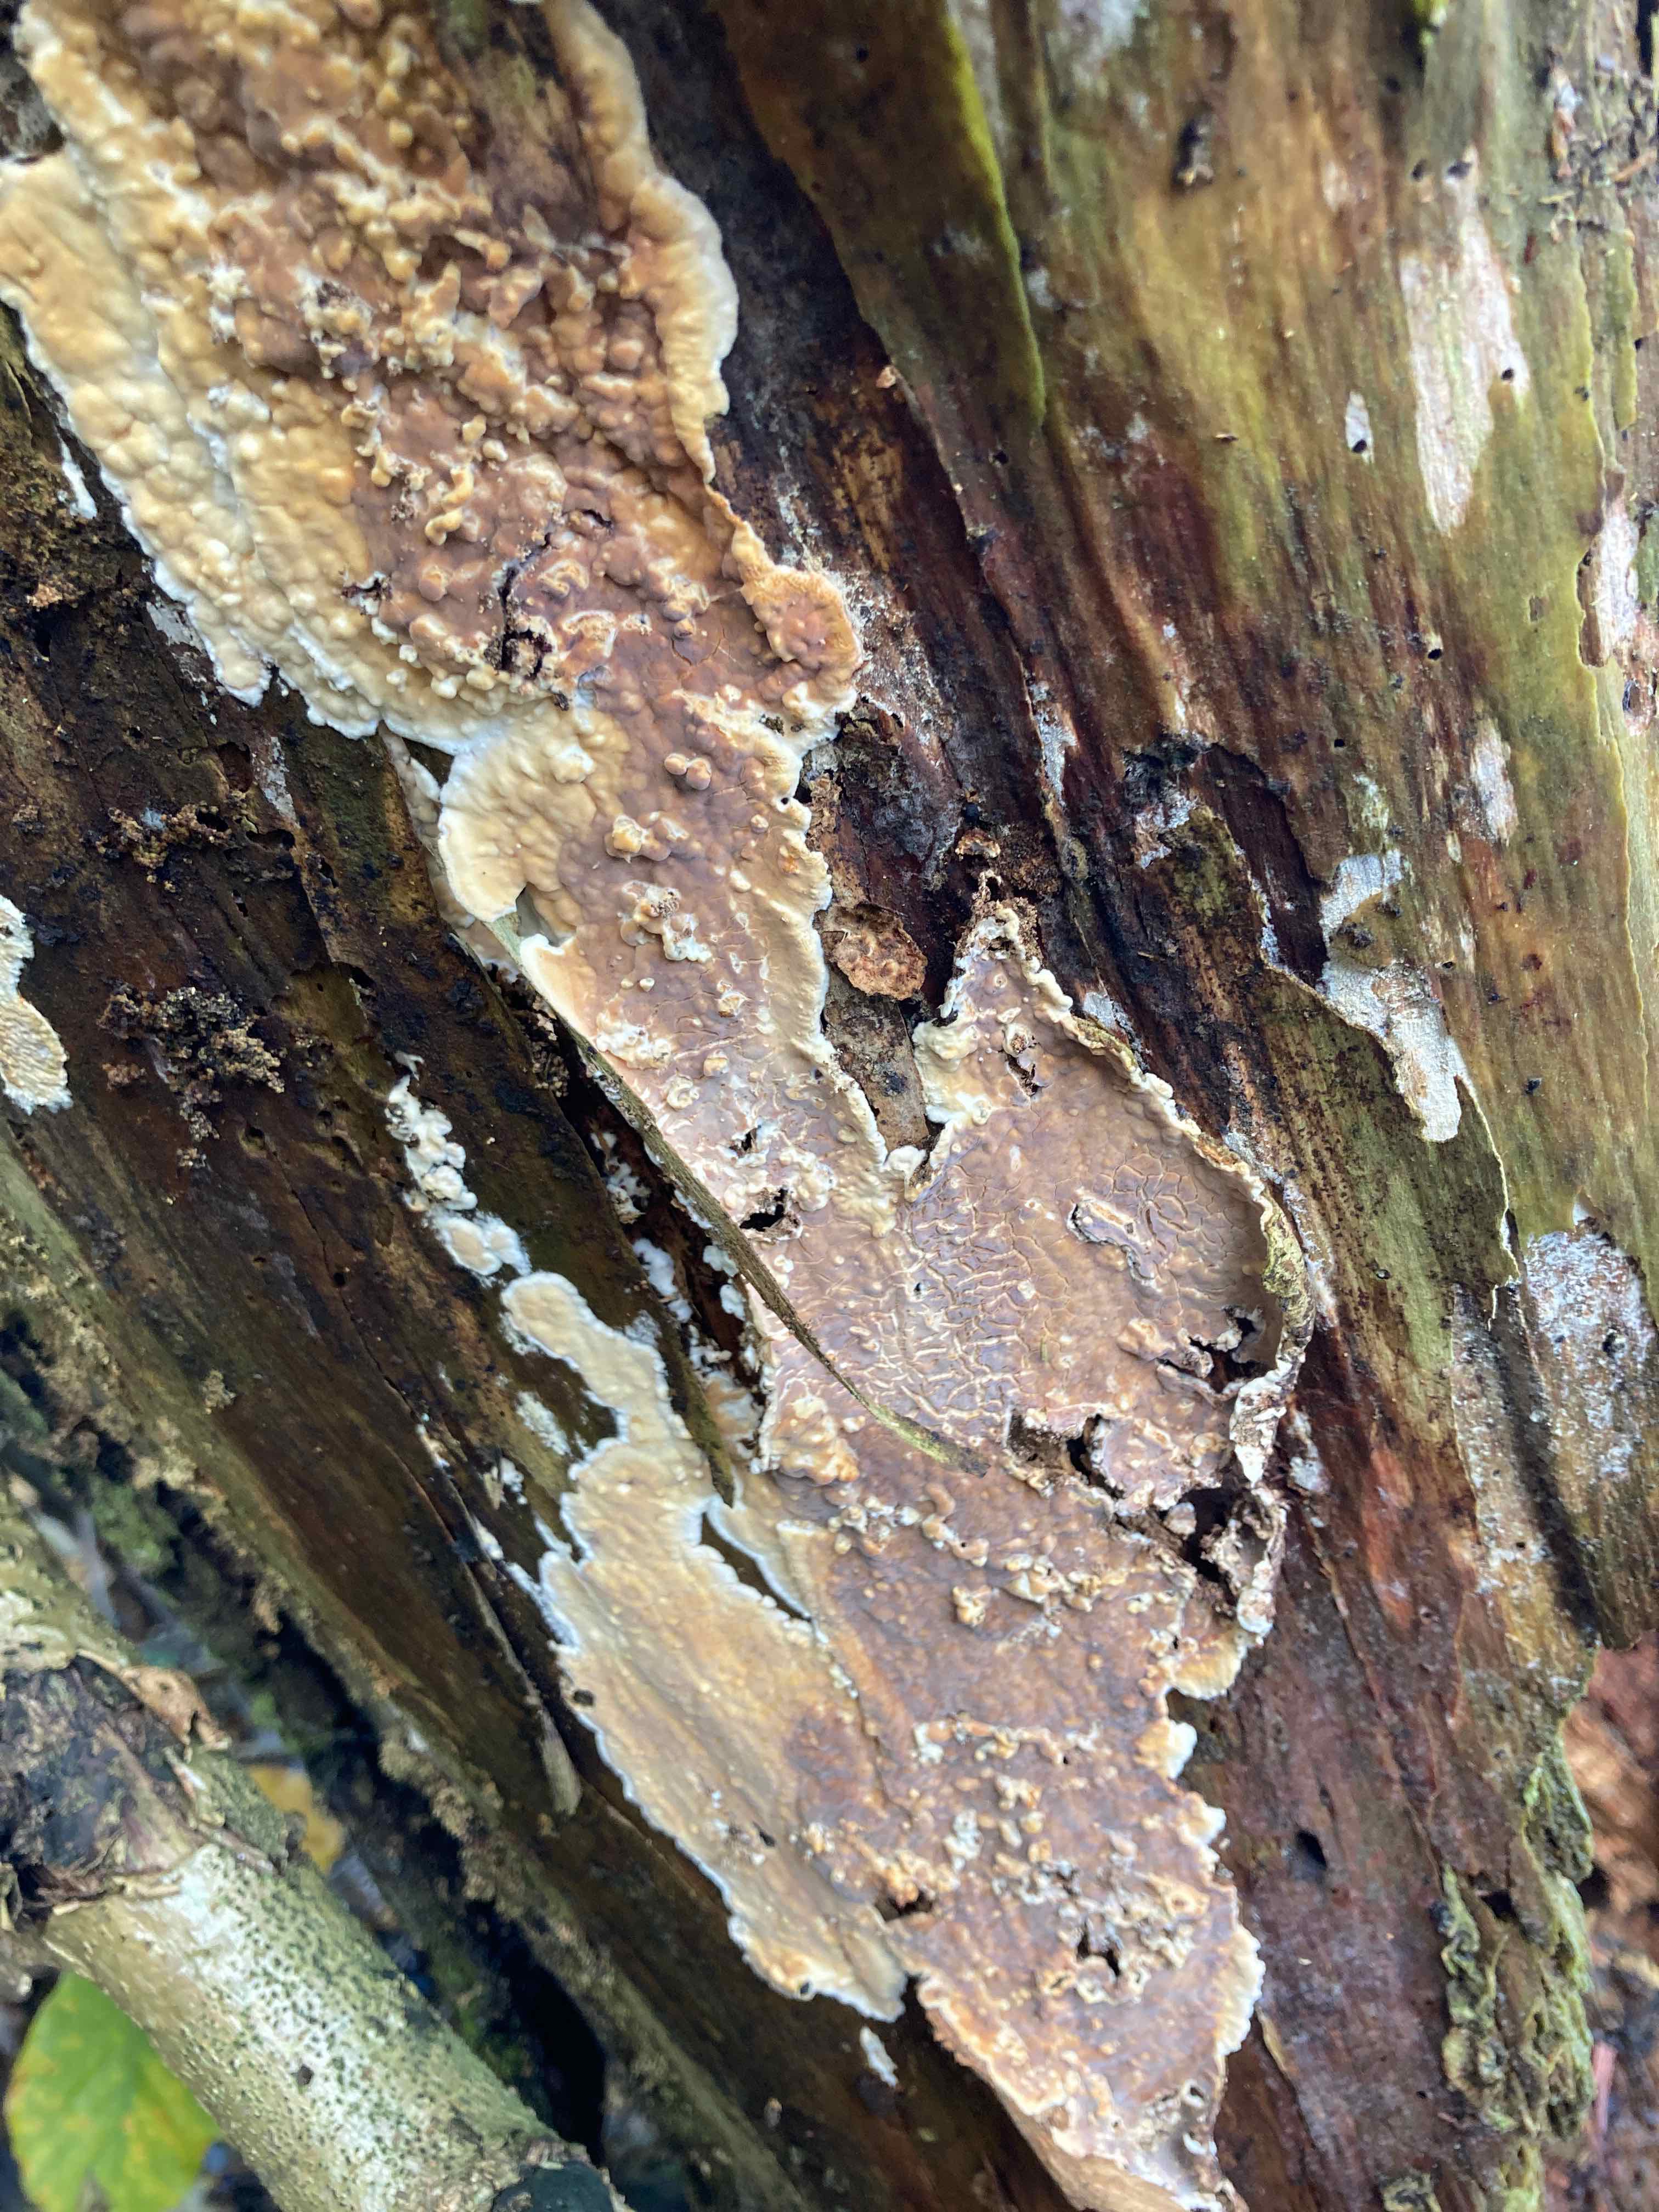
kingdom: Fungi
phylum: Basidiomycota
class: Agaricomycetes
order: Polyporales
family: Dacryobolaceae
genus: Dacryobolus
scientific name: Dacryobolus karstenii
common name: glat vulkanskorpe
